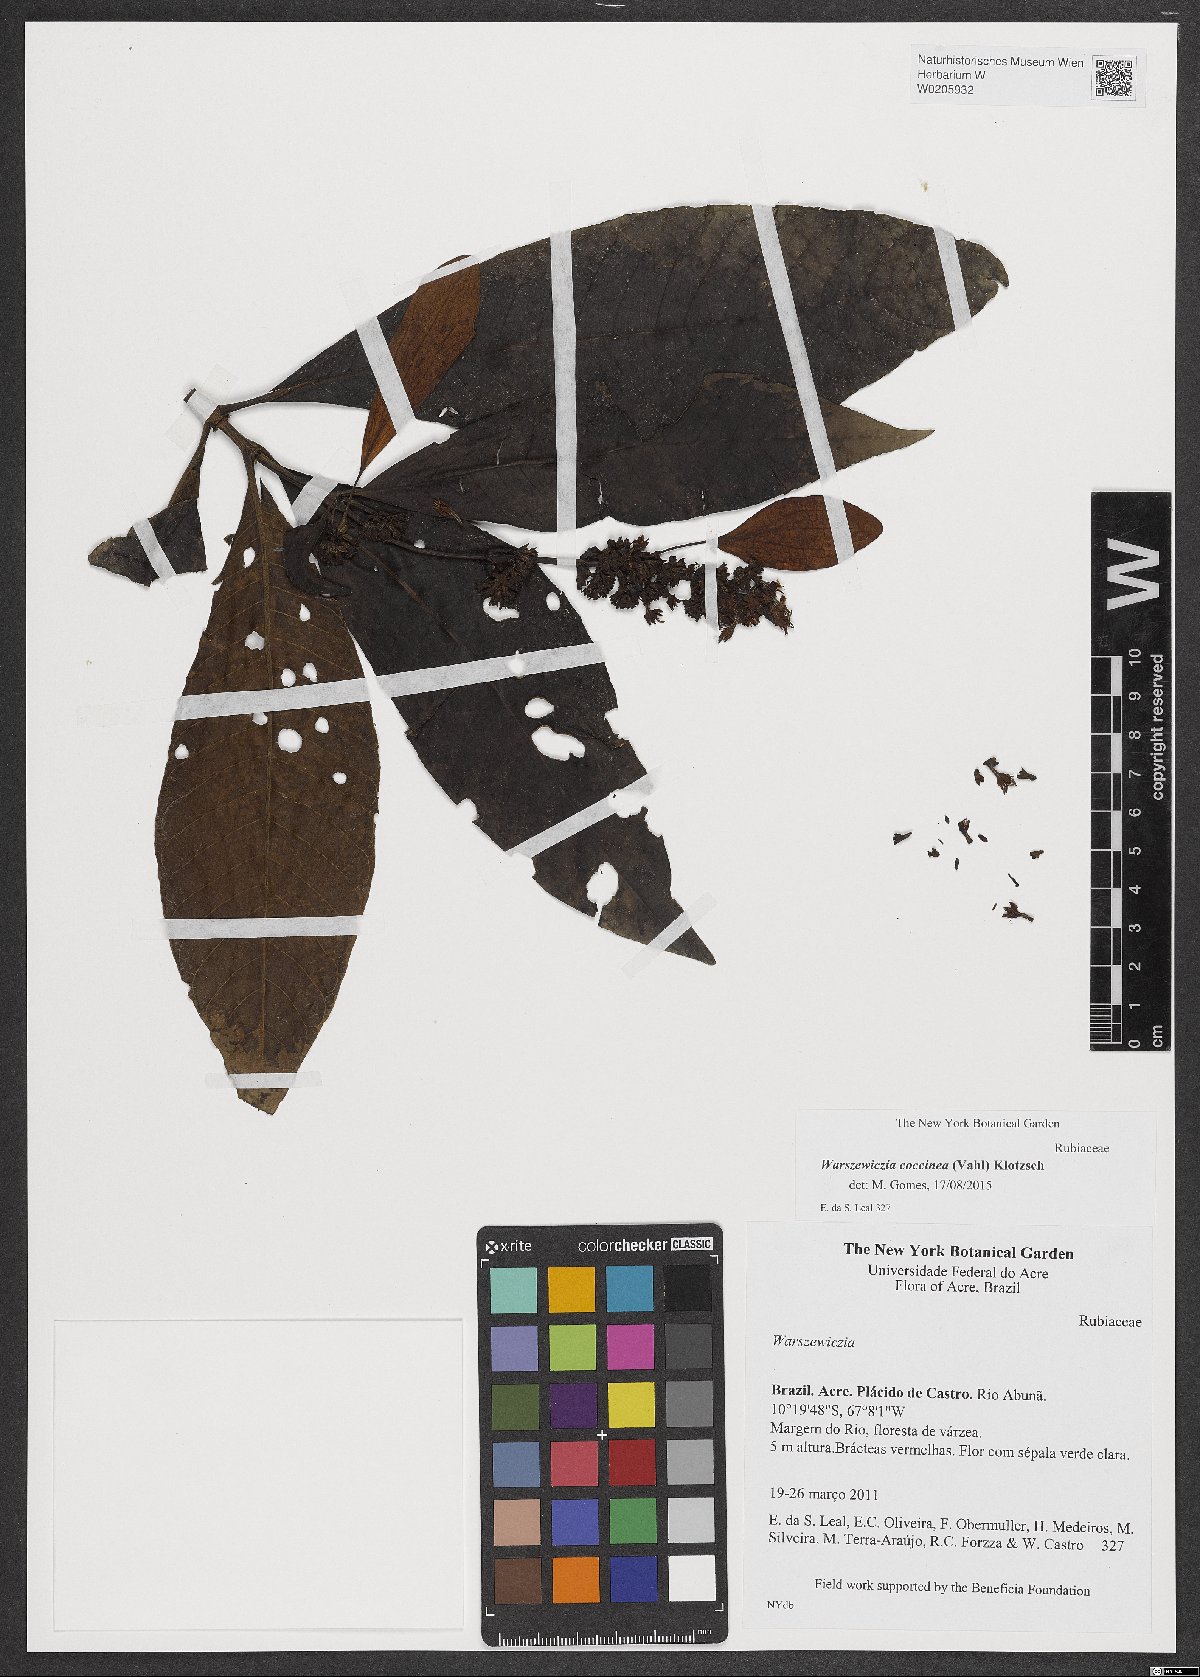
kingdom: Plantae
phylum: Tracheophyta
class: Magnoliopsida
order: Gentianales
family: Rubiaceae
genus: Warszewiczia
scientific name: Warszewiczia coccinea
